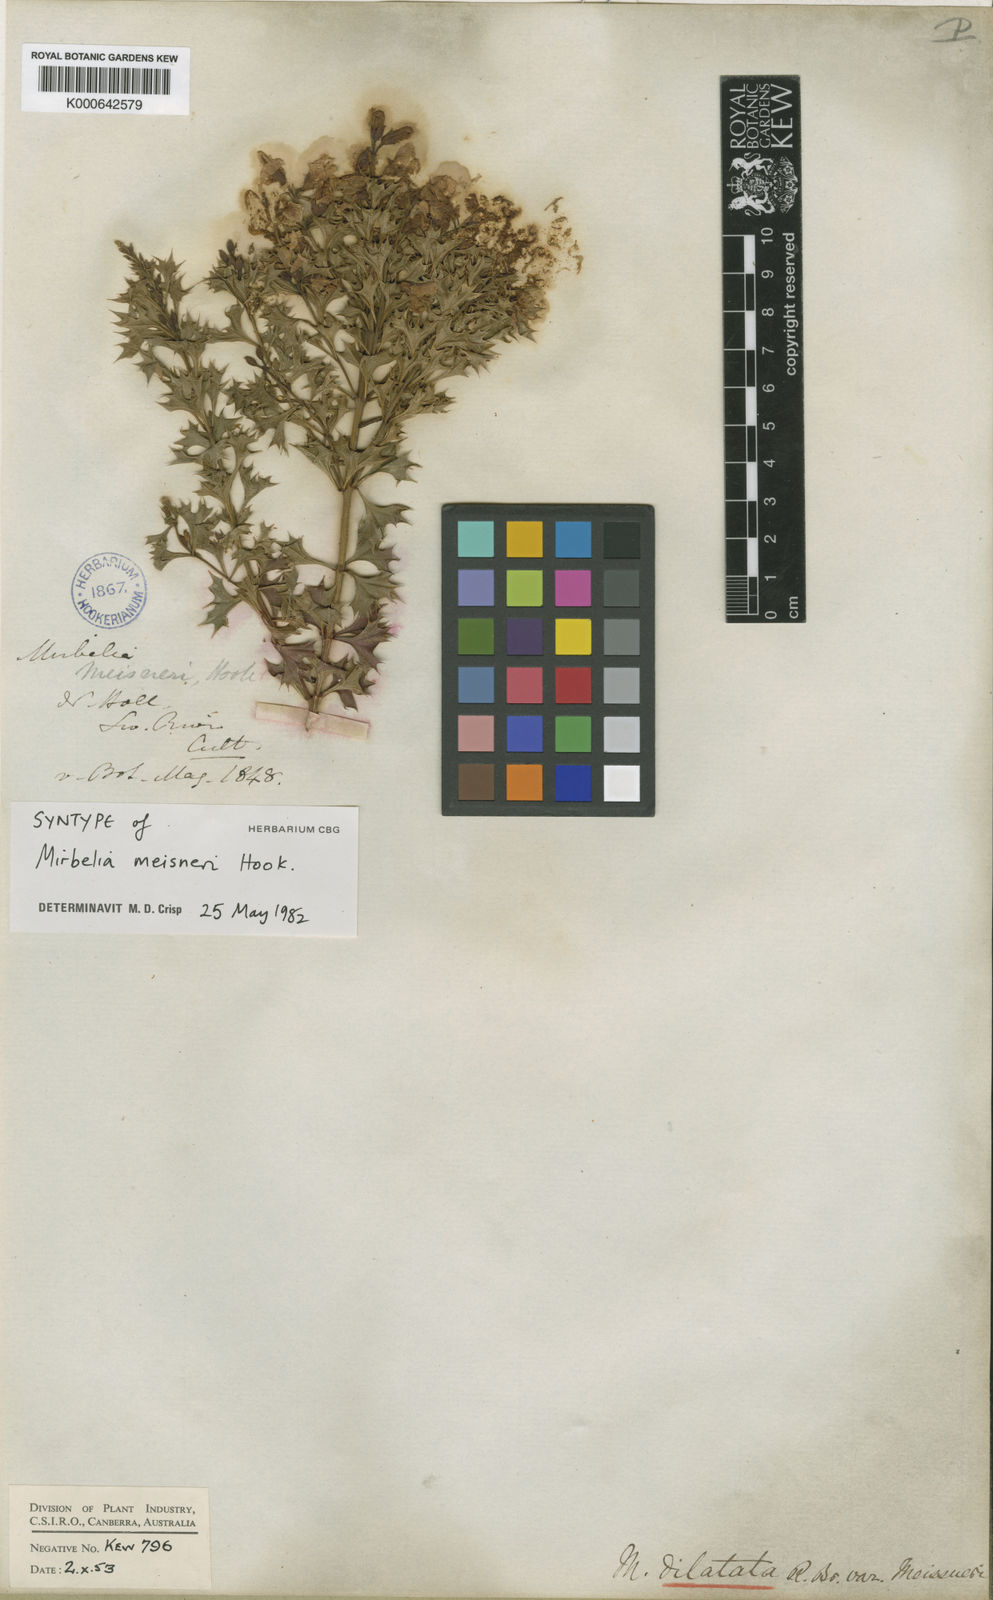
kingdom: Plantae
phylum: Tracheophyta
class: Magnoliopsida
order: Fabales
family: Fabaceae
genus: Mirbelia
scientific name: Mirbelia dilatata
